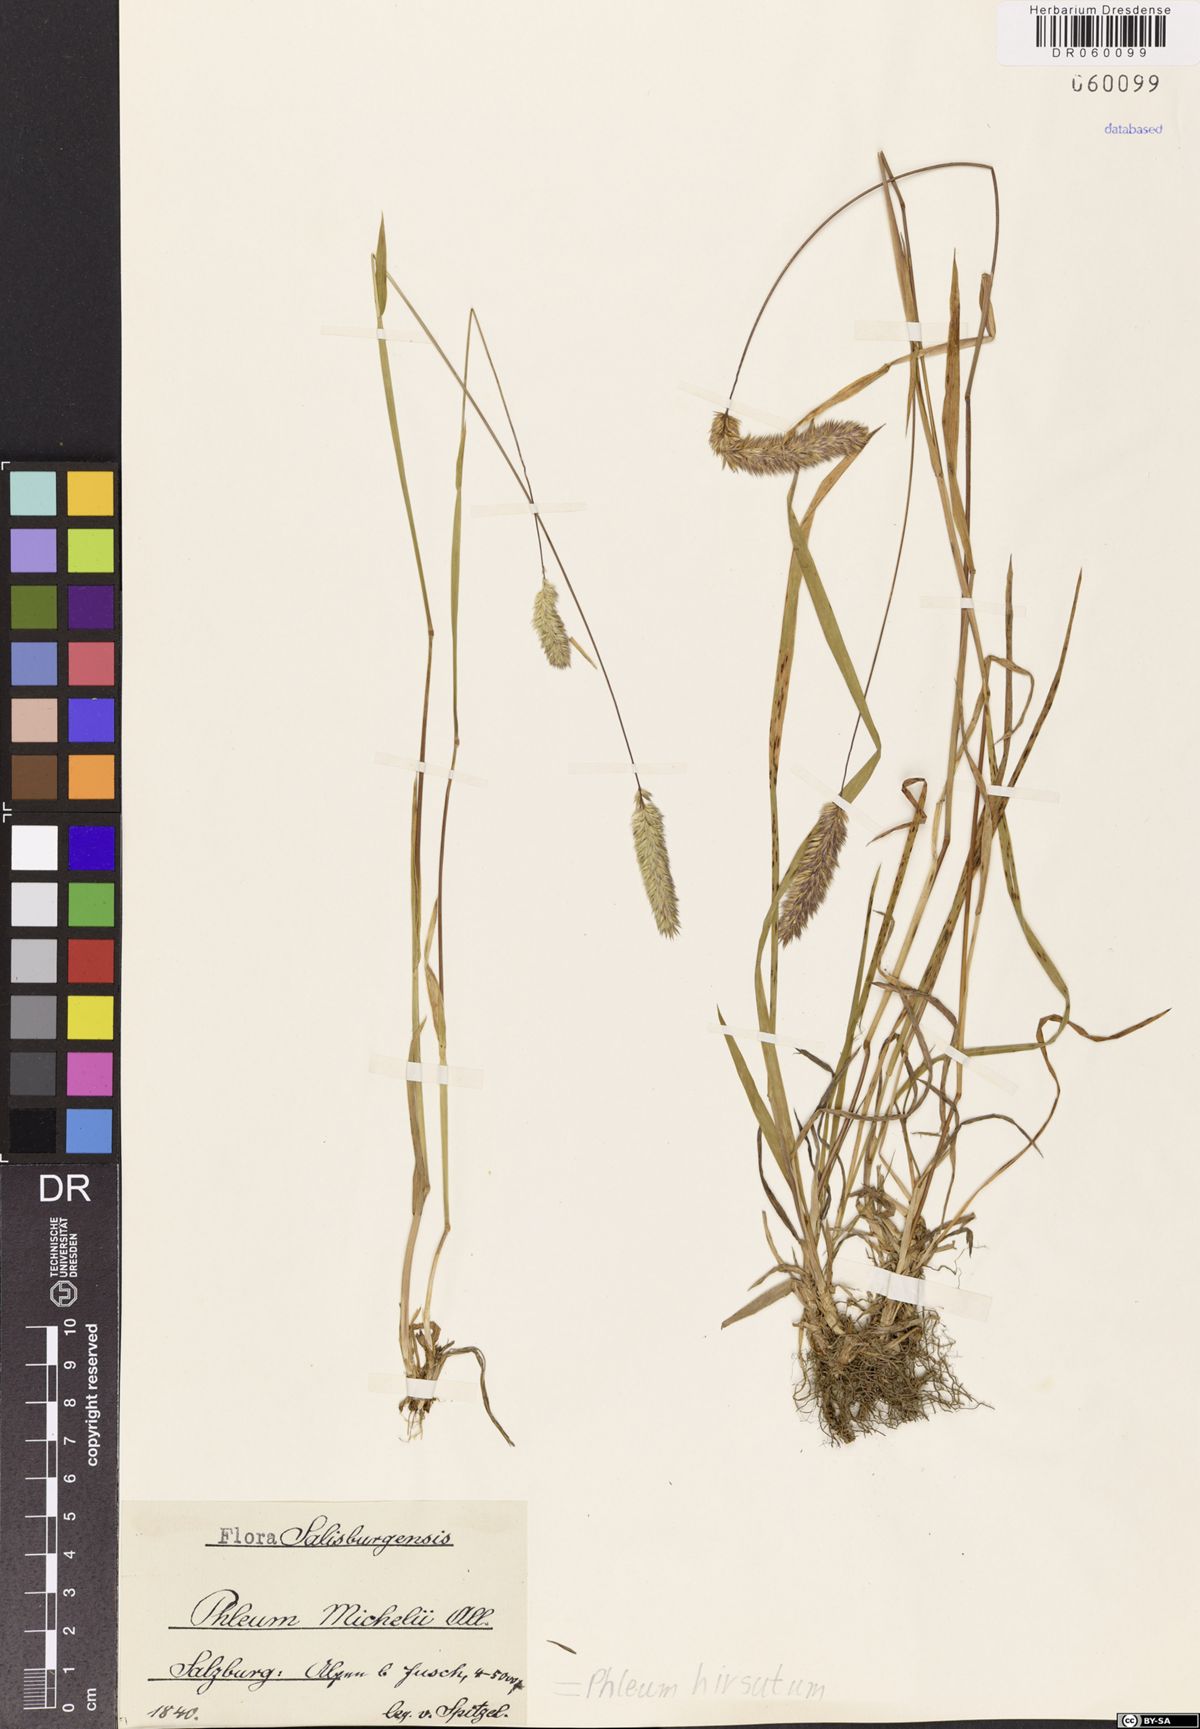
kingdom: Plantae
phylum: Tracheophyta
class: Liliopsida
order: Poales
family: Poaceae
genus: Phleum
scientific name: Phleum hirsutum
